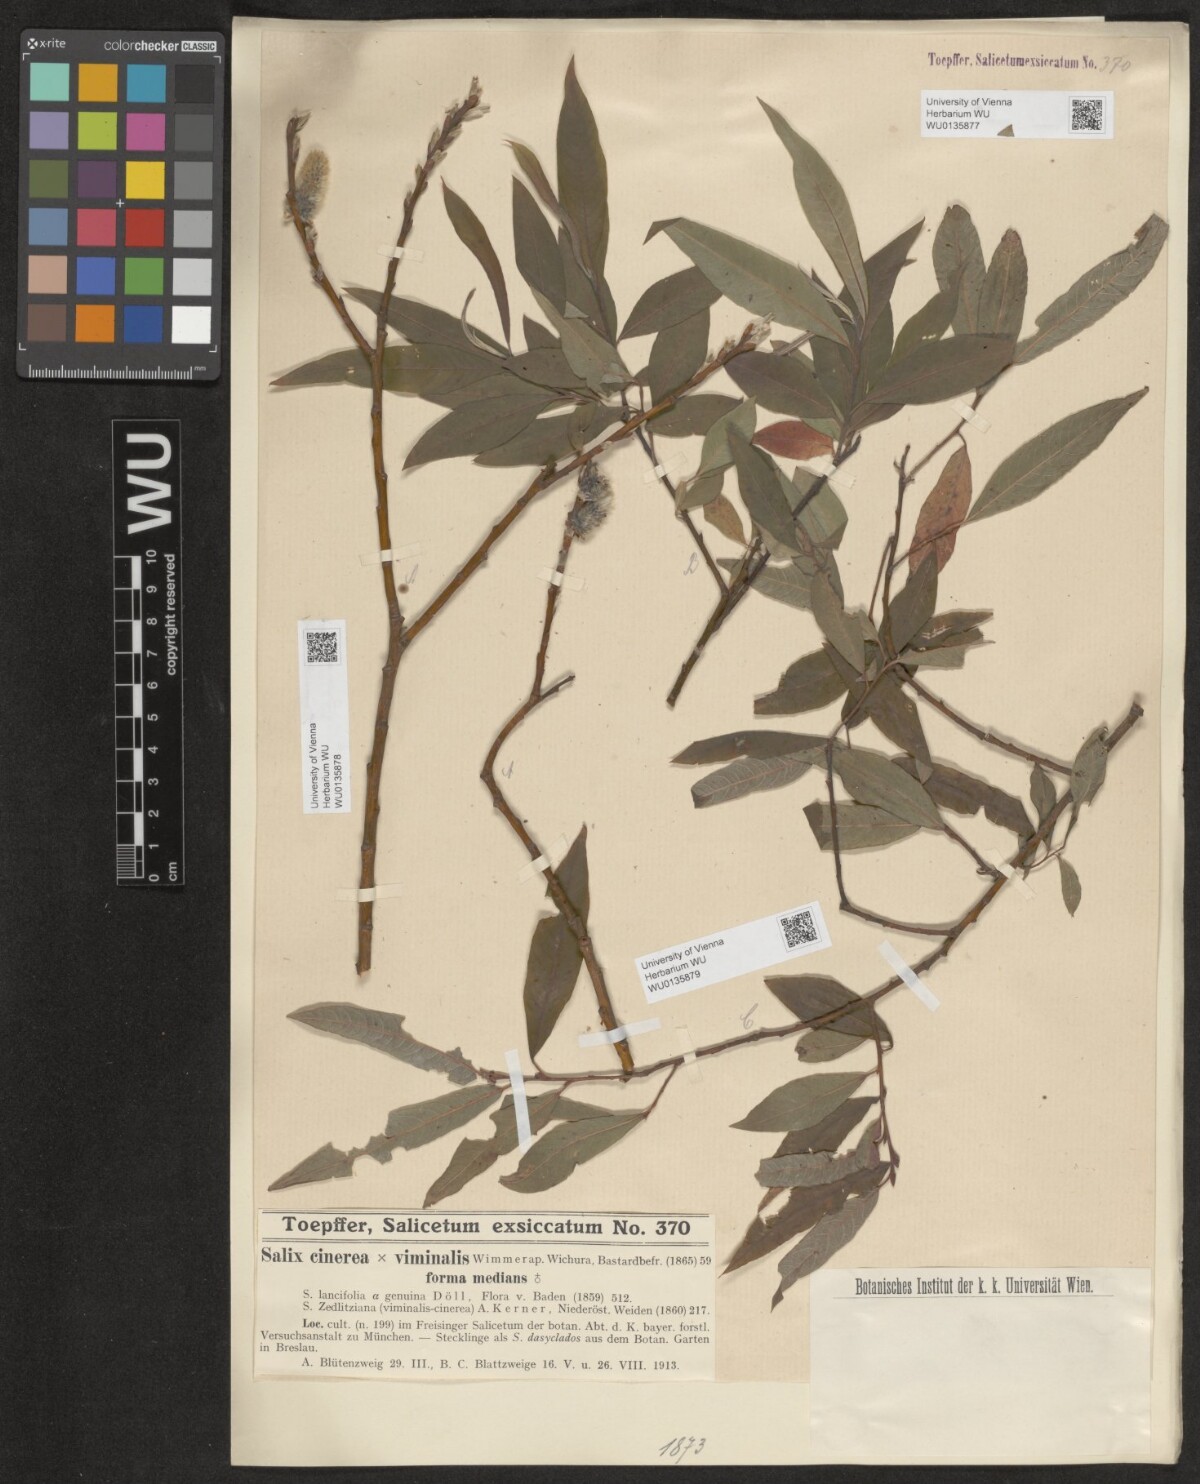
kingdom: Plantae
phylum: Tracheophyta
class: Magnoliopsida
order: Malpighiales
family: Salicaceae
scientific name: Salicaceae
